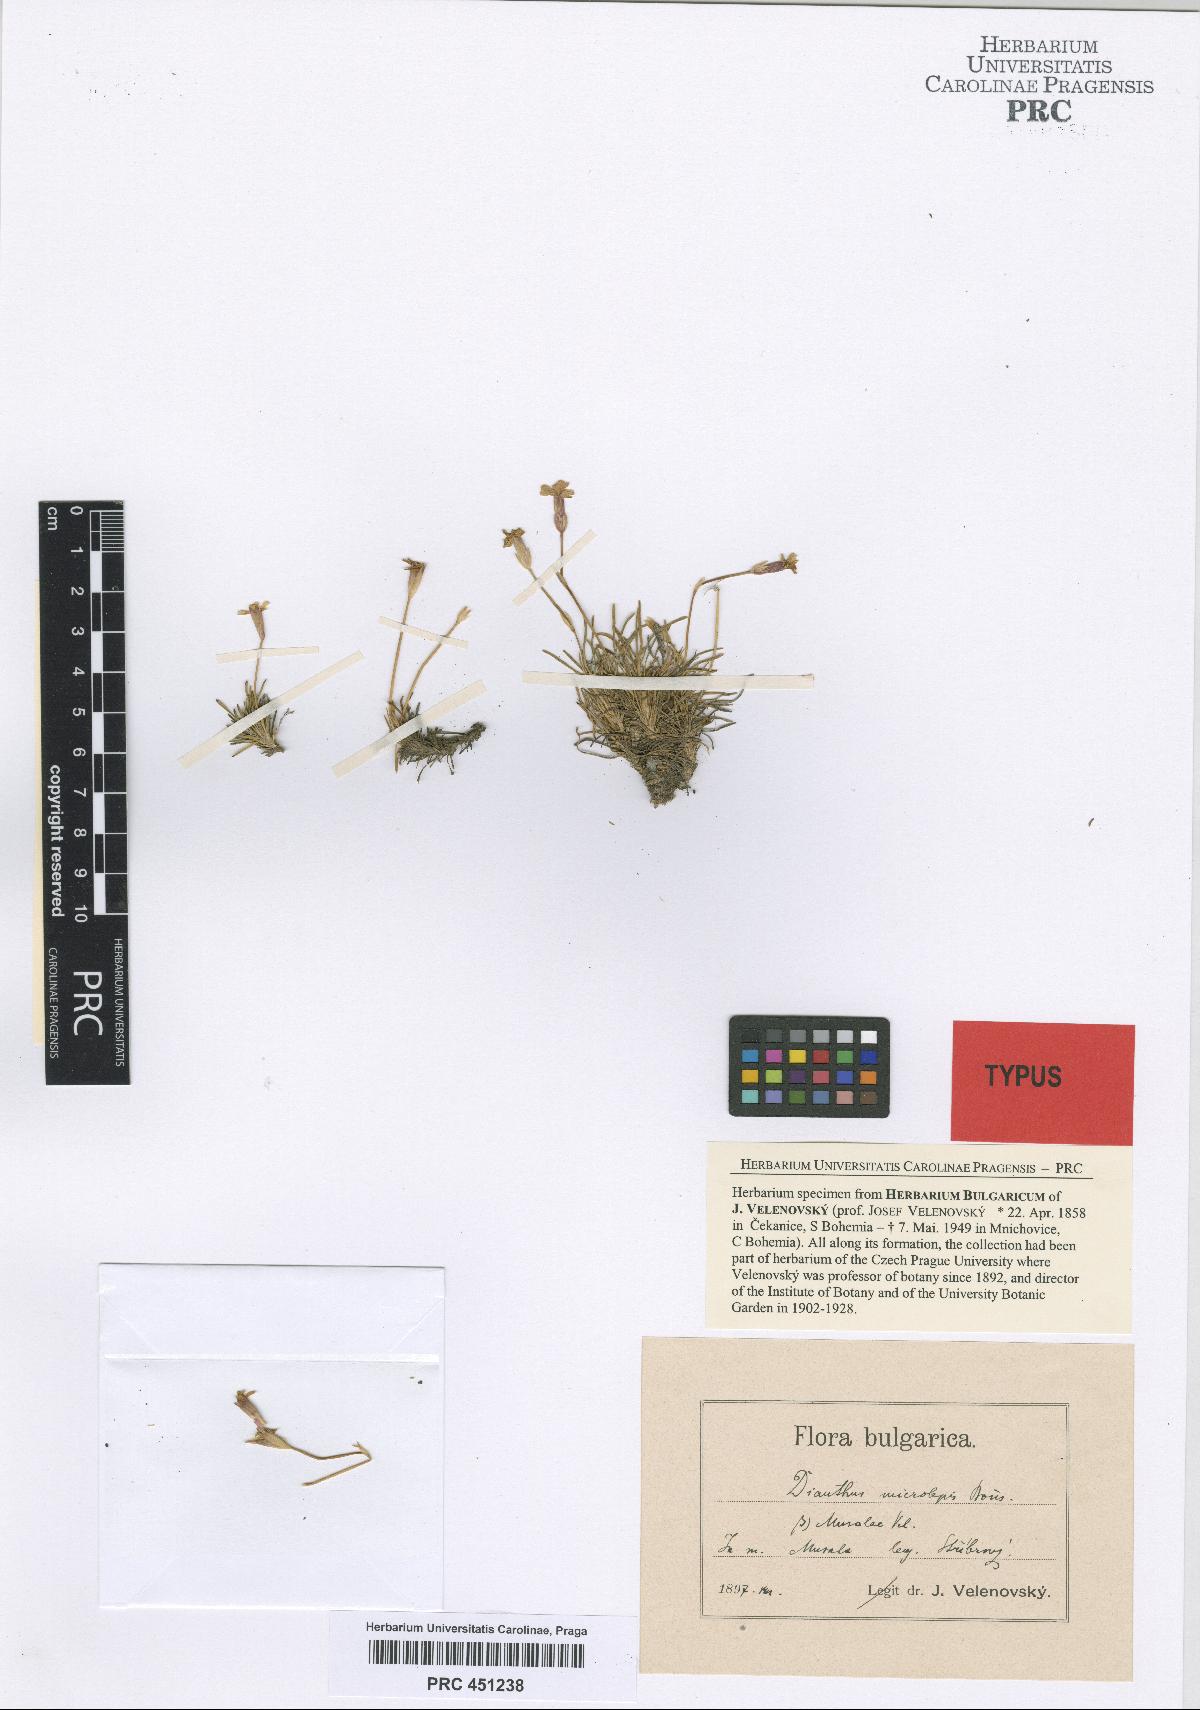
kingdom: Plantae
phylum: Tracheophyta
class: Magnoliopsida
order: Caryophyllales
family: Caryophyllaceae
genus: Dianthus
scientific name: Dianthus micranthus
